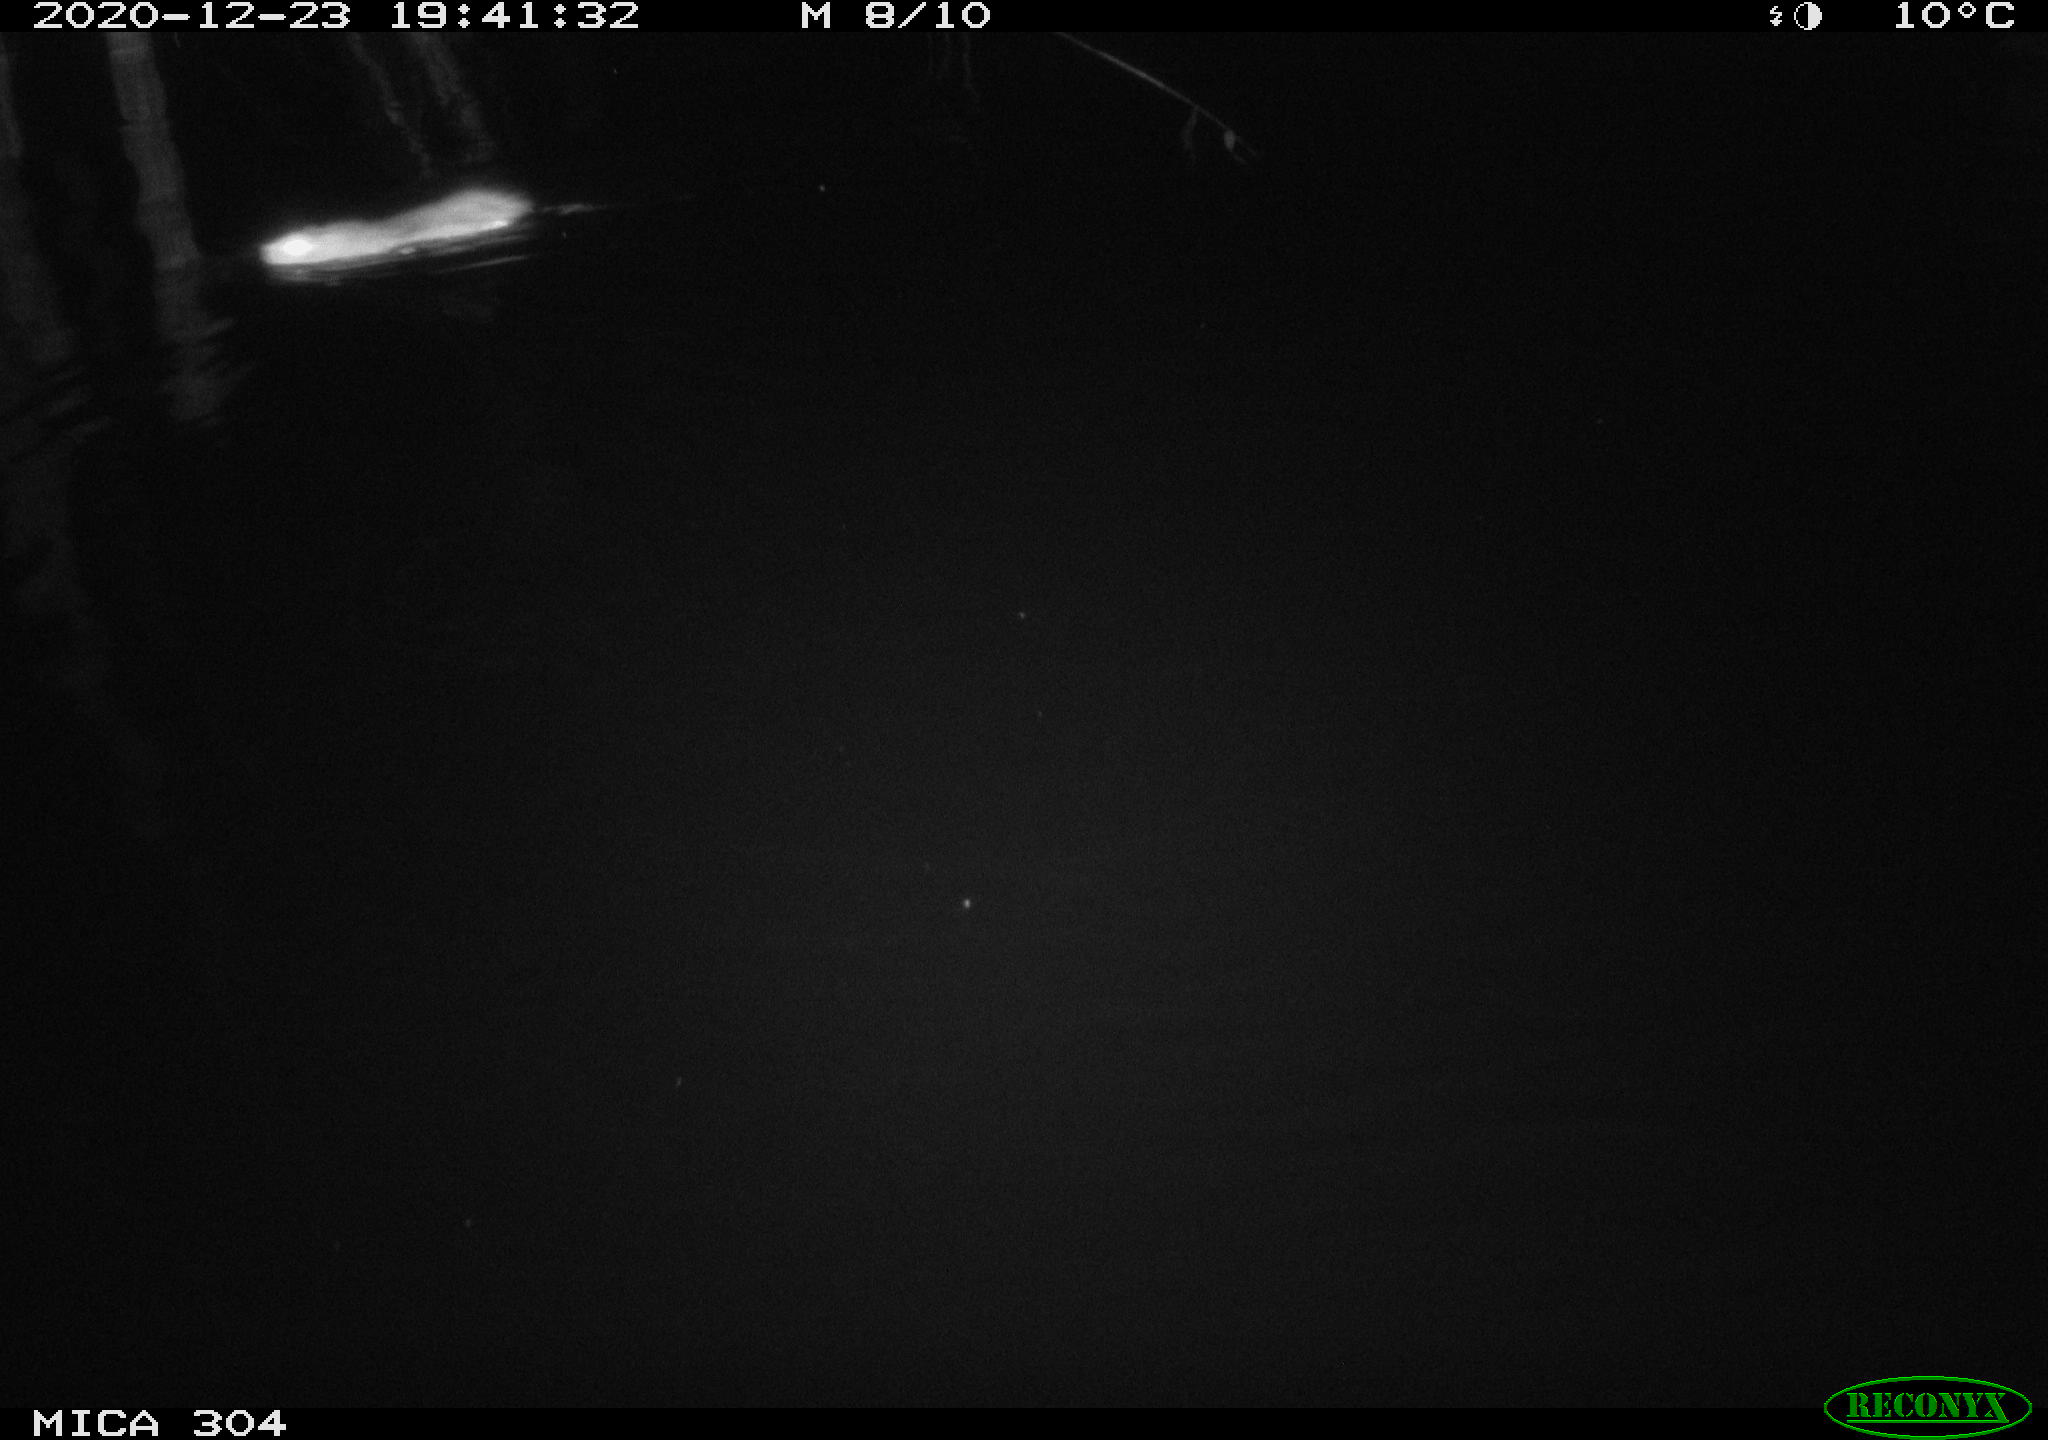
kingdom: Animalia
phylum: Chordata
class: Mammalia
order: Rodentia
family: Muridae
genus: Rattus
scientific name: Rattus norvegicus
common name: Brown rat
